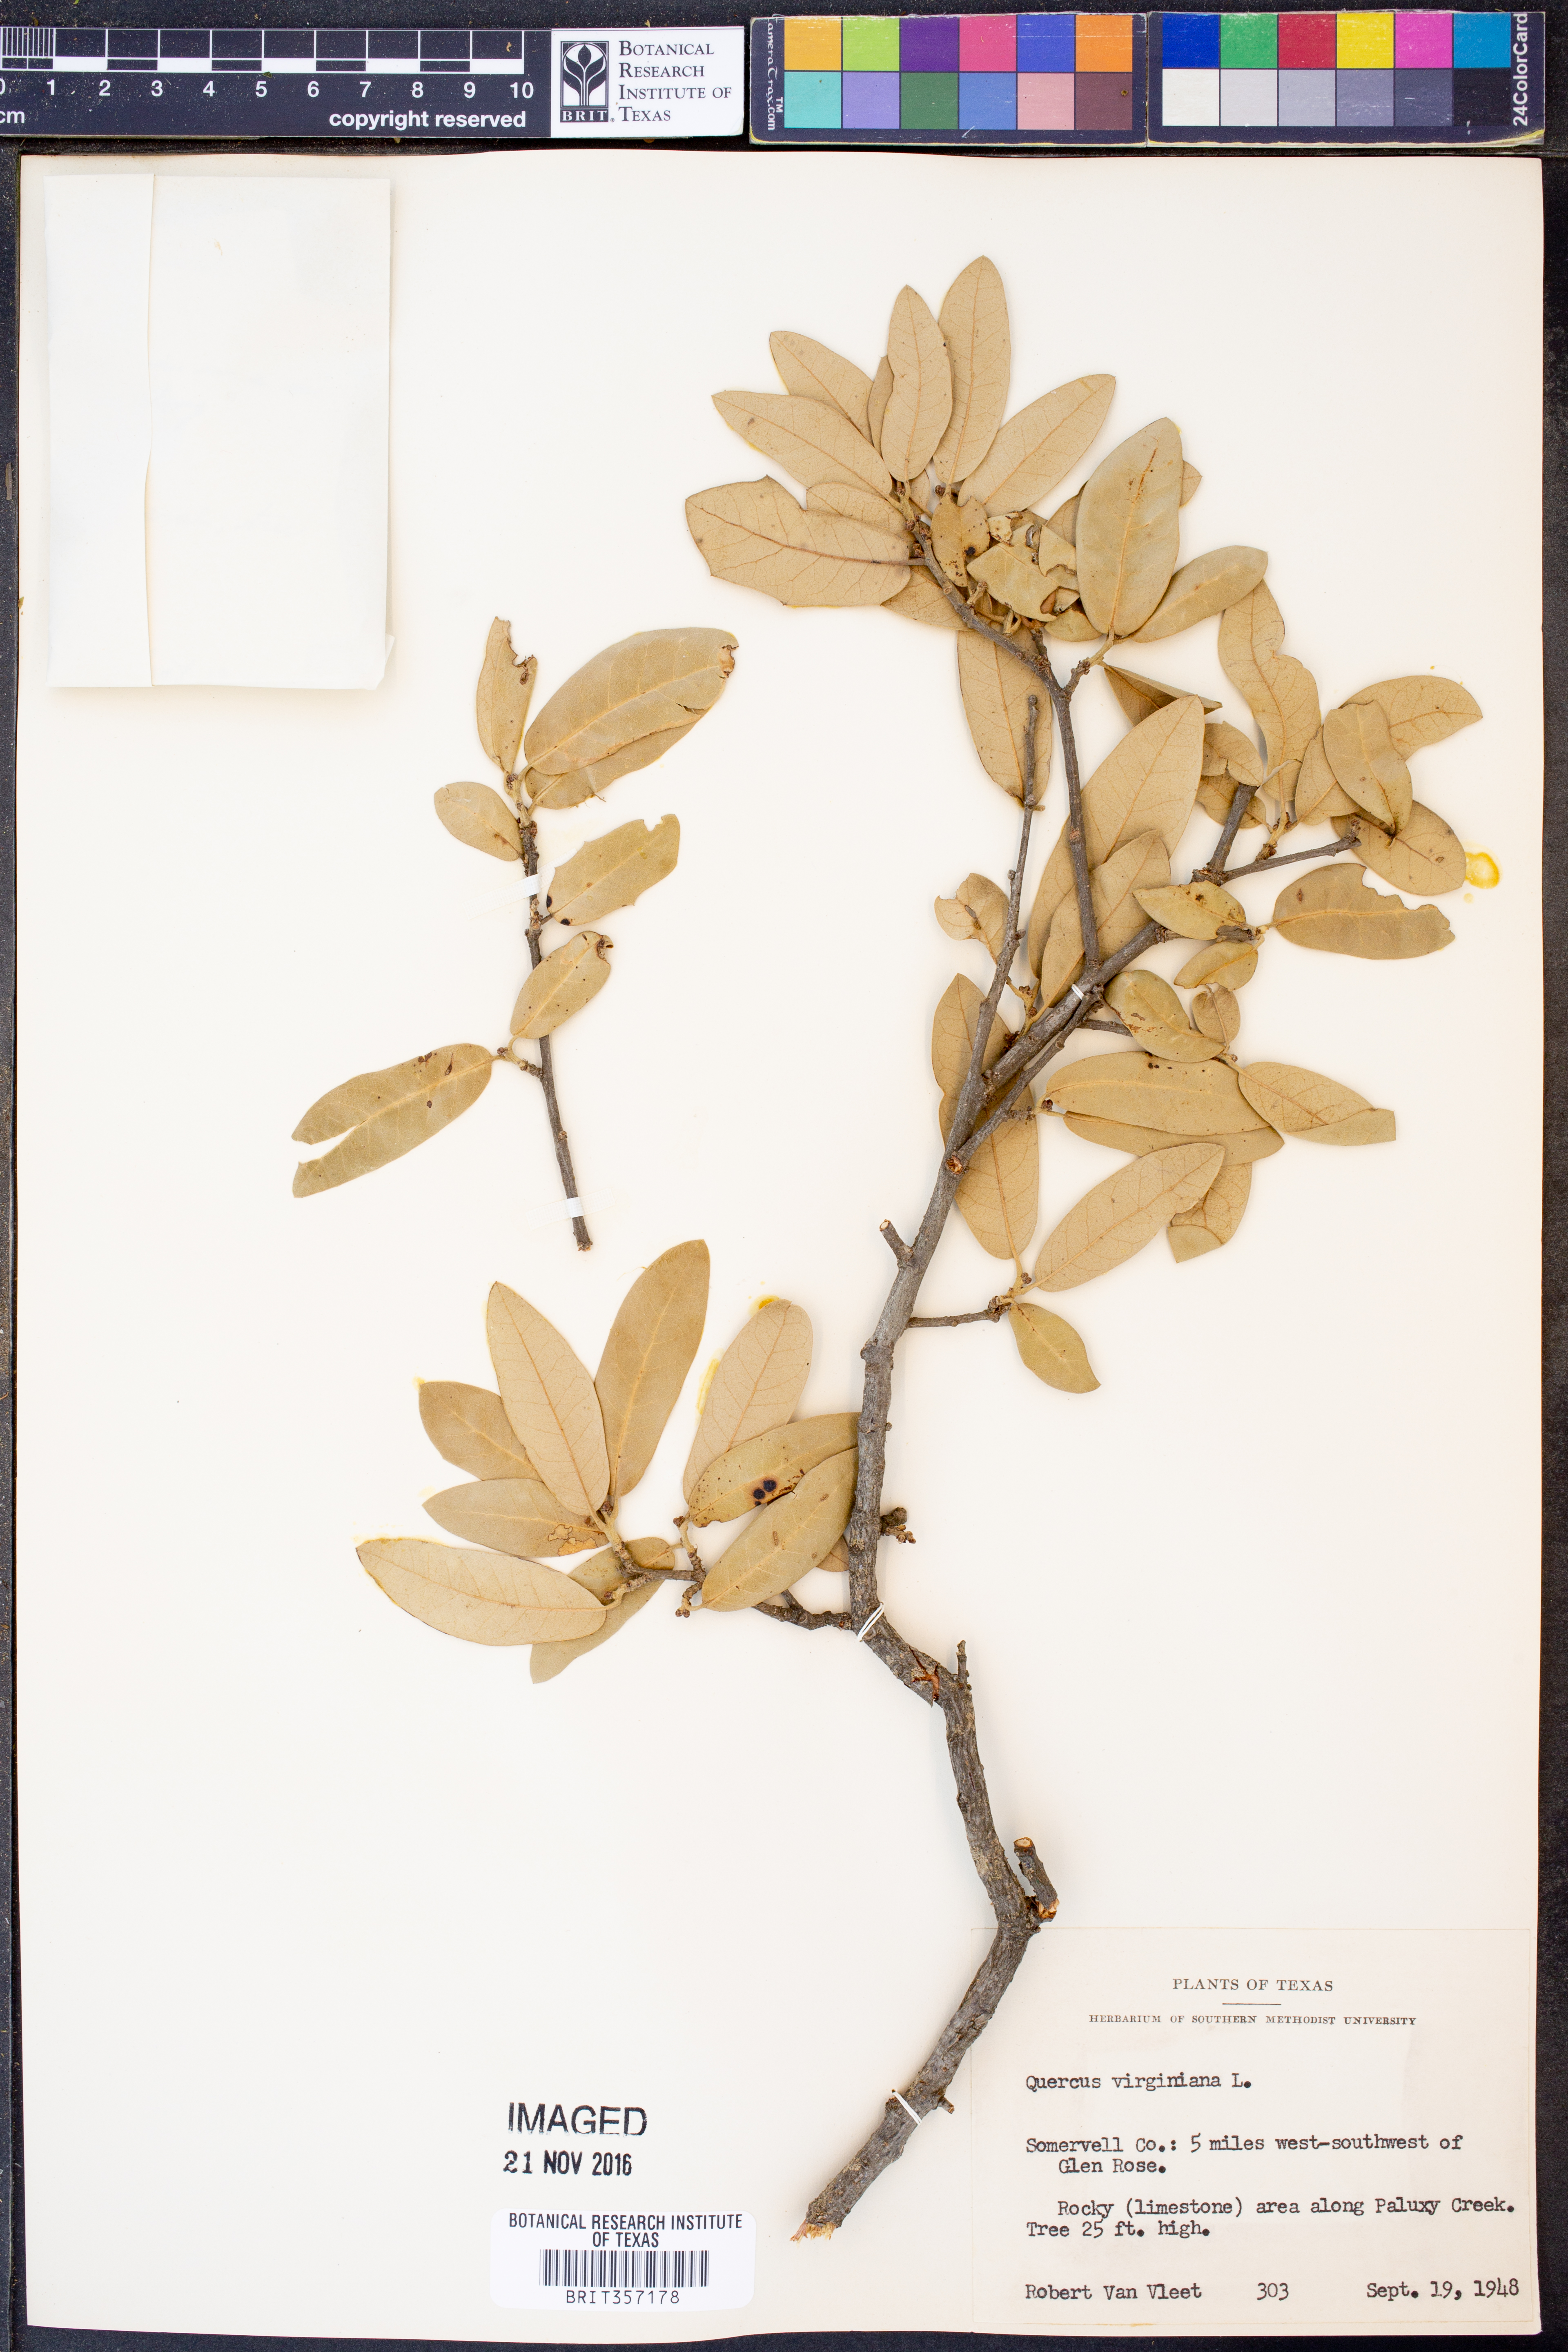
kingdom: Plantae
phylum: Tracheophyta
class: Magnoliopsida
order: Fagales
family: Fagaceae
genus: Quercus
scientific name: Quercus virginiana
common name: Southern live oak
